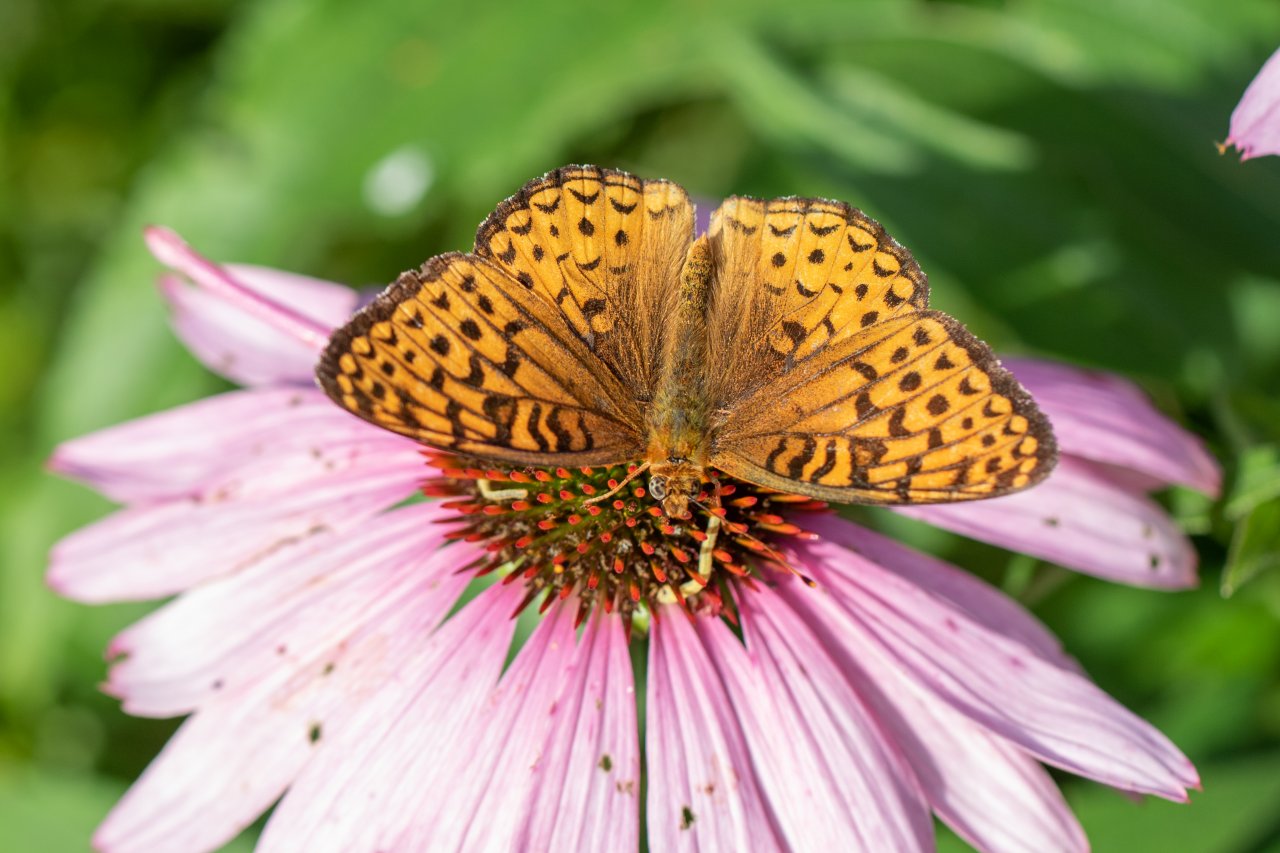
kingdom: Animalia
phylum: Arthropoda
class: Insecta
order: Lepidoptera
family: Nymphalidae
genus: Speyeria
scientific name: Speyeria atlantis
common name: Atlantis Fritillary
